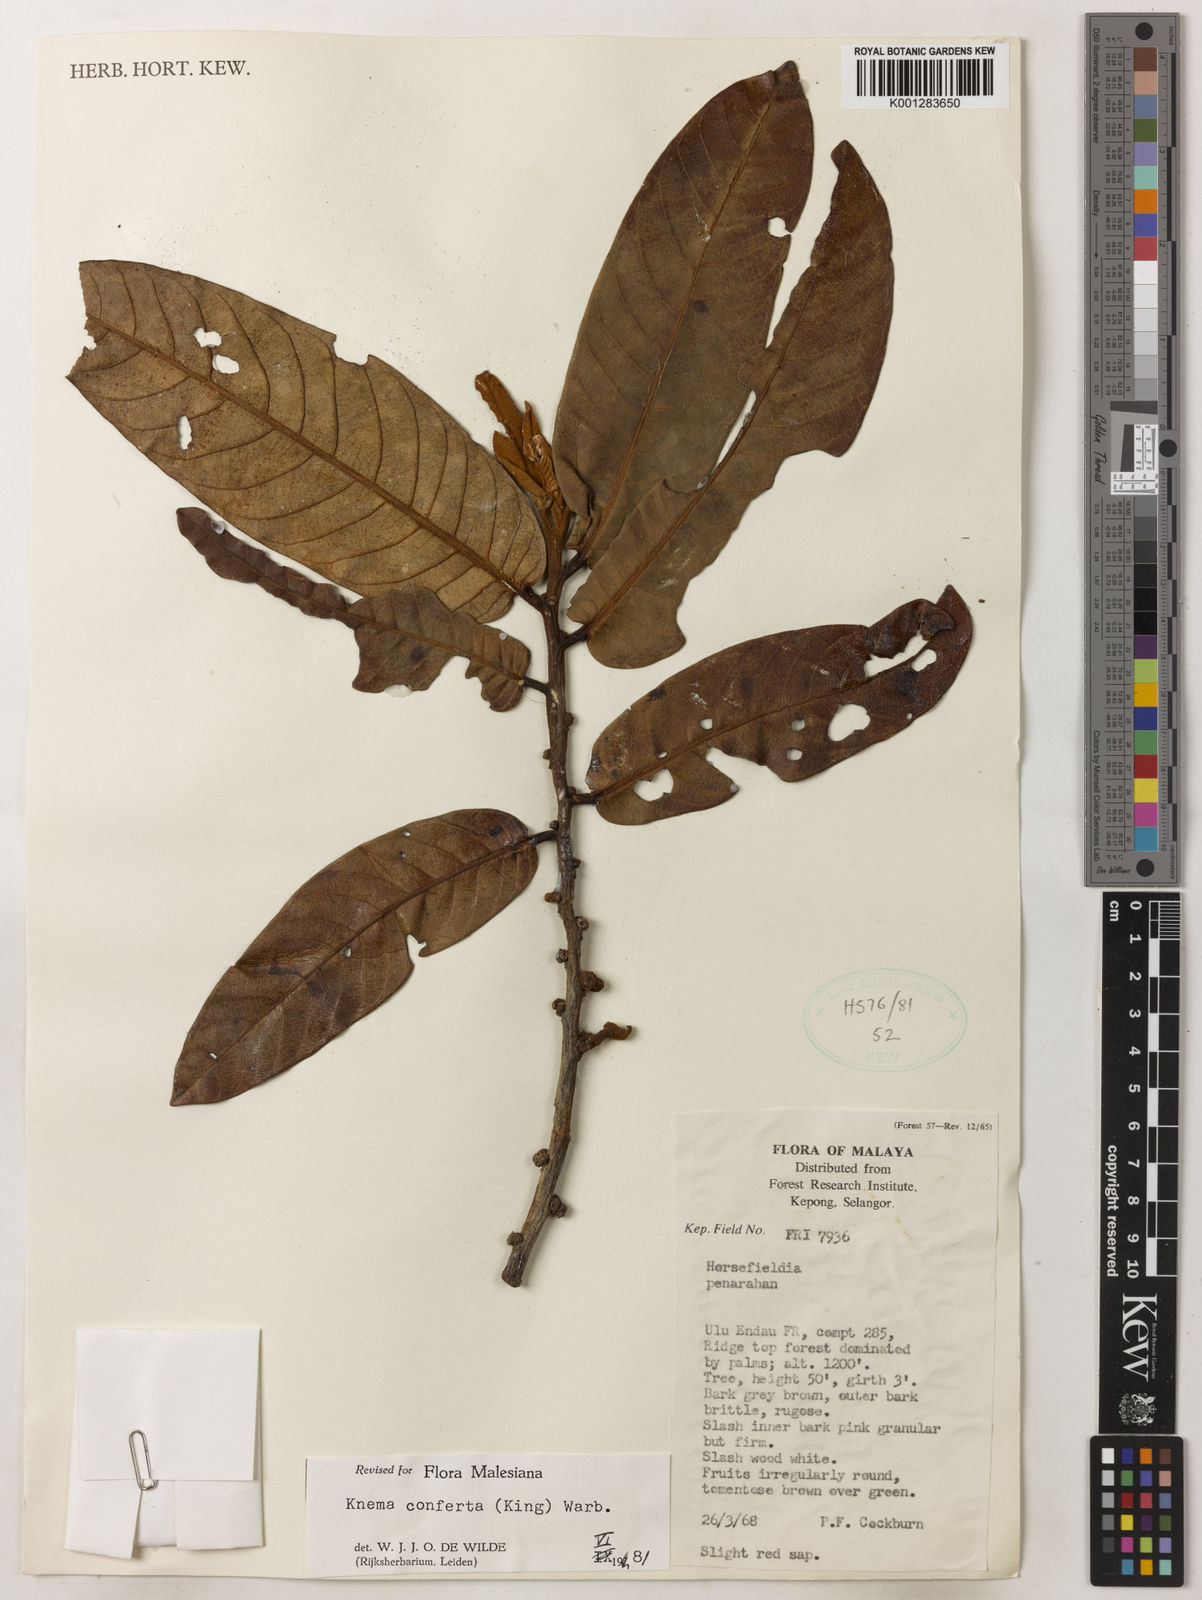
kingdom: Plantae
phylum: Tracheophyta
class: Magnoliopsida
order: Magnoliales
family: Myristicaceae
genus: Knema
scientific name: Knema conferta
